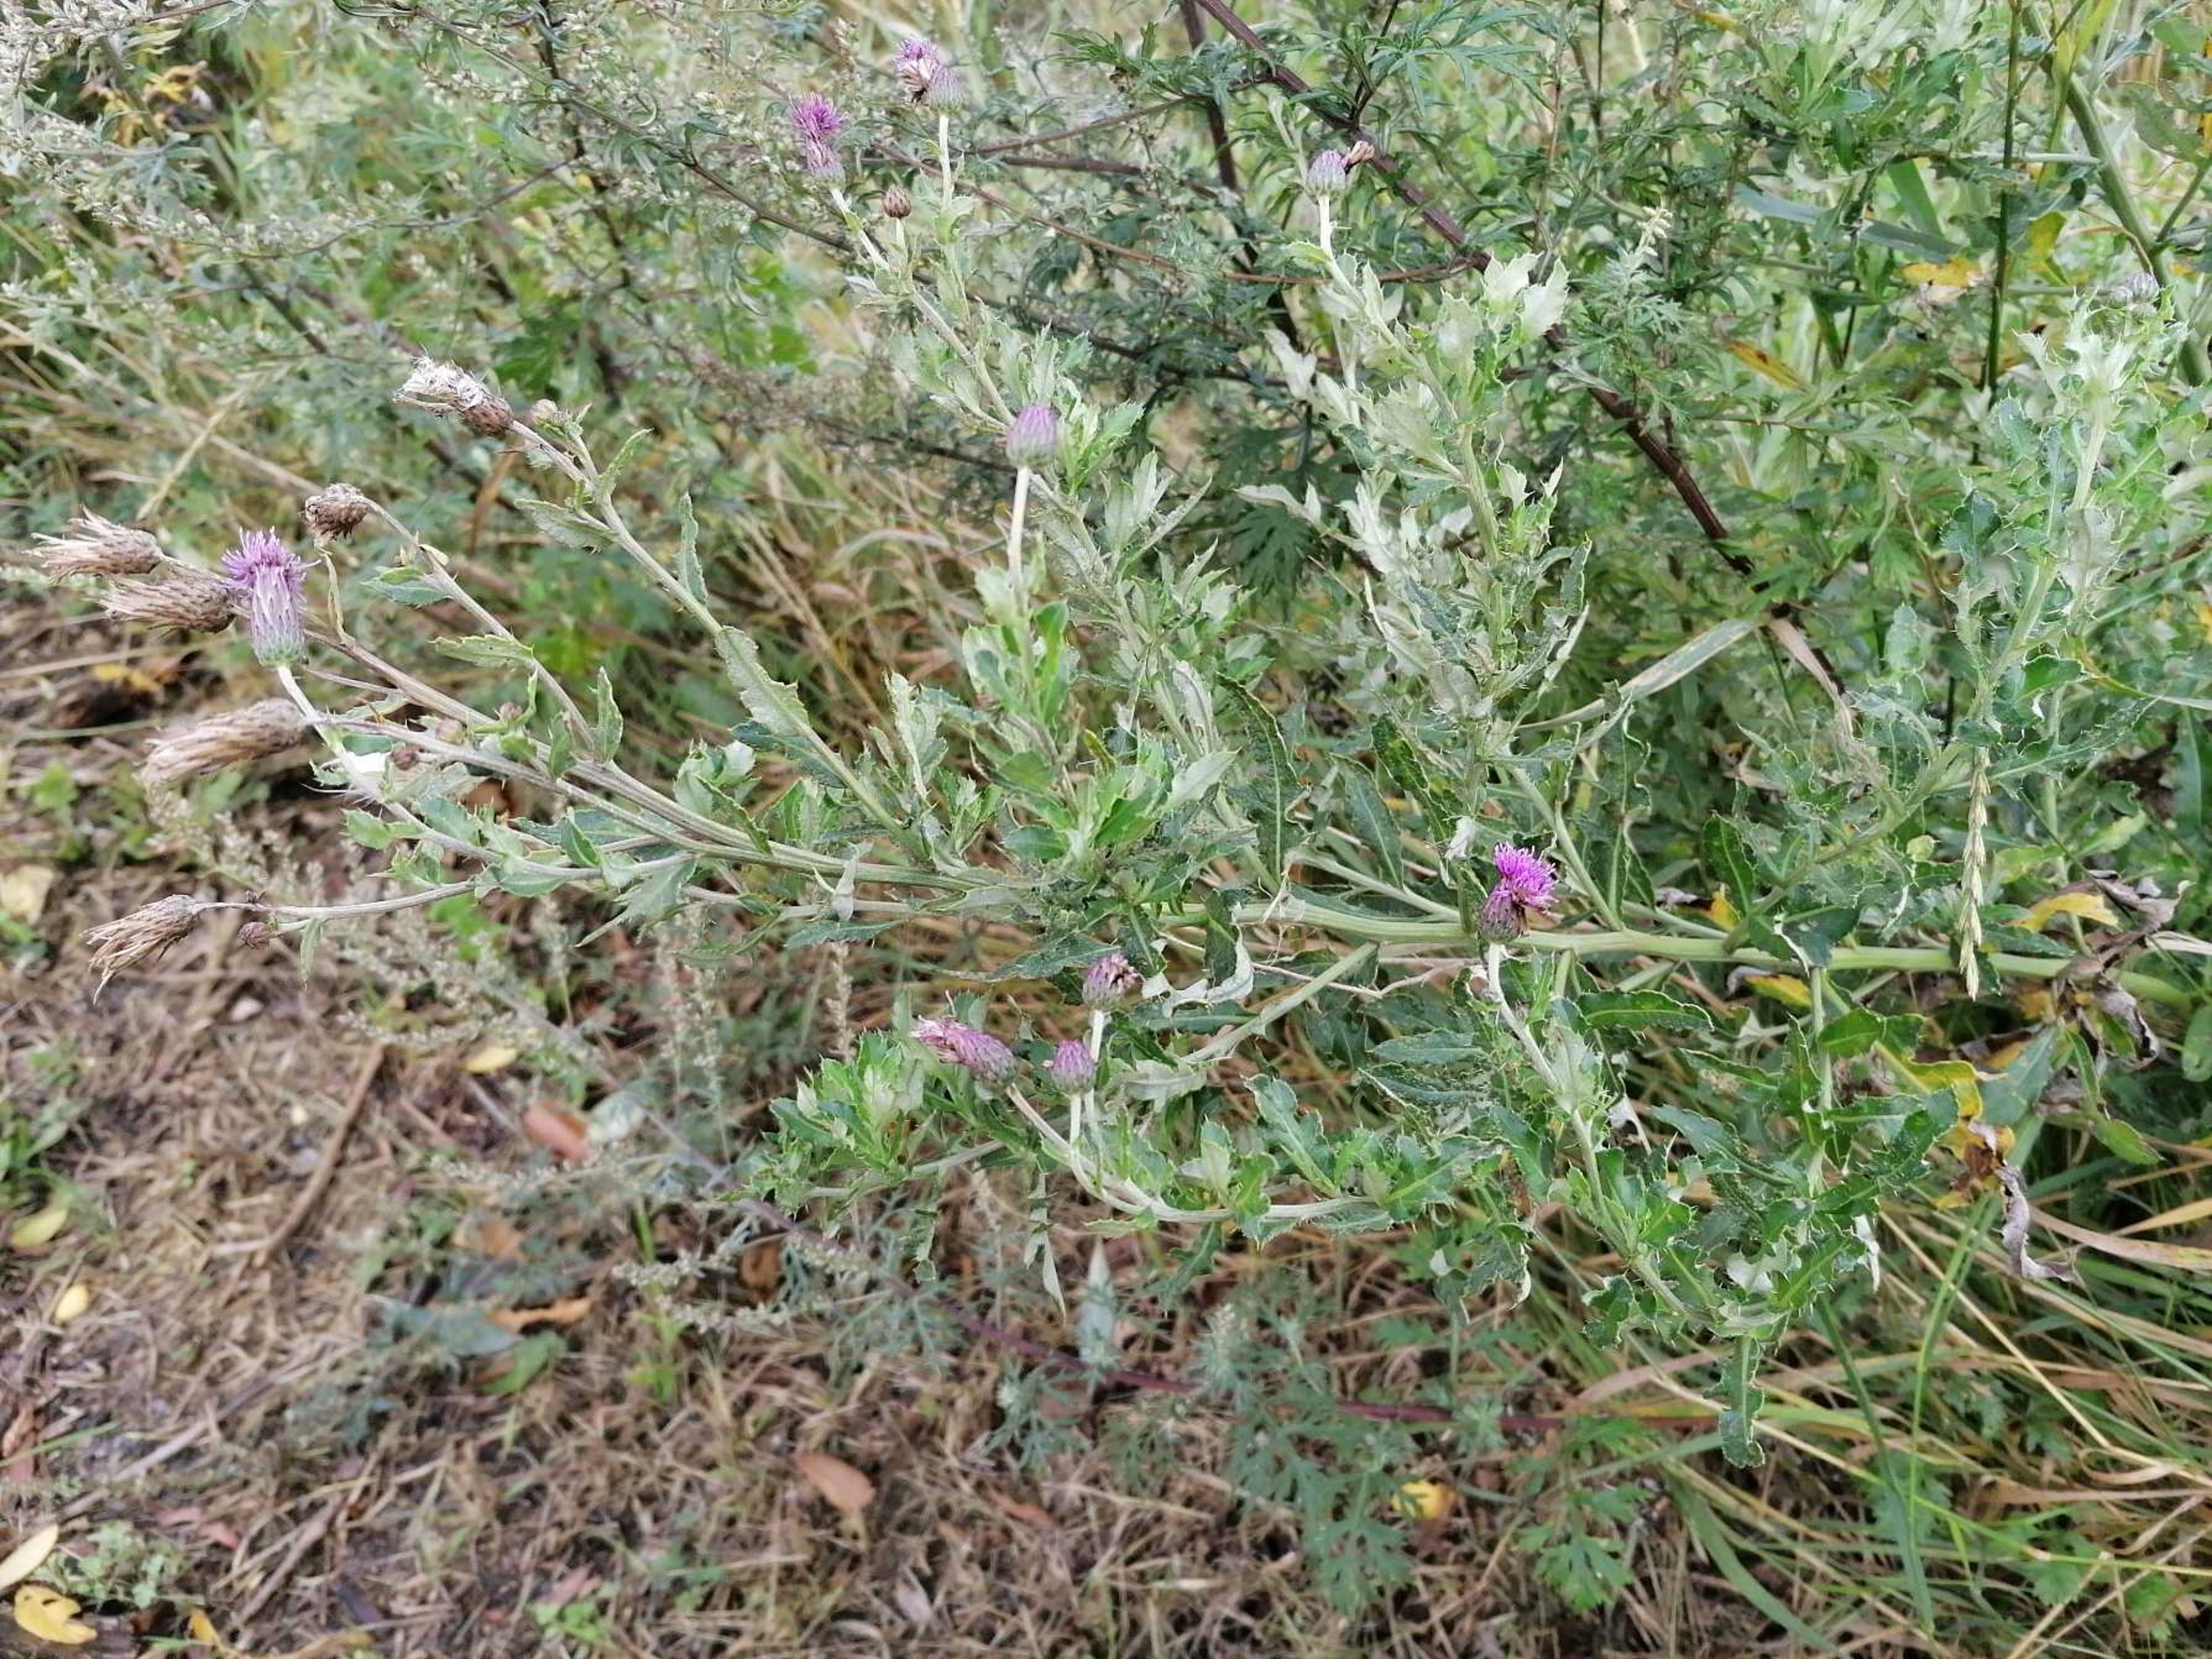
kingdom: Plantae
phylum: Tracheophyta
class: Magnoliopsida
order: Asterales
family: Asteraceae
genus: Cirsium
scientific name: Cirsium arvense
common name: Ager-tidsel
